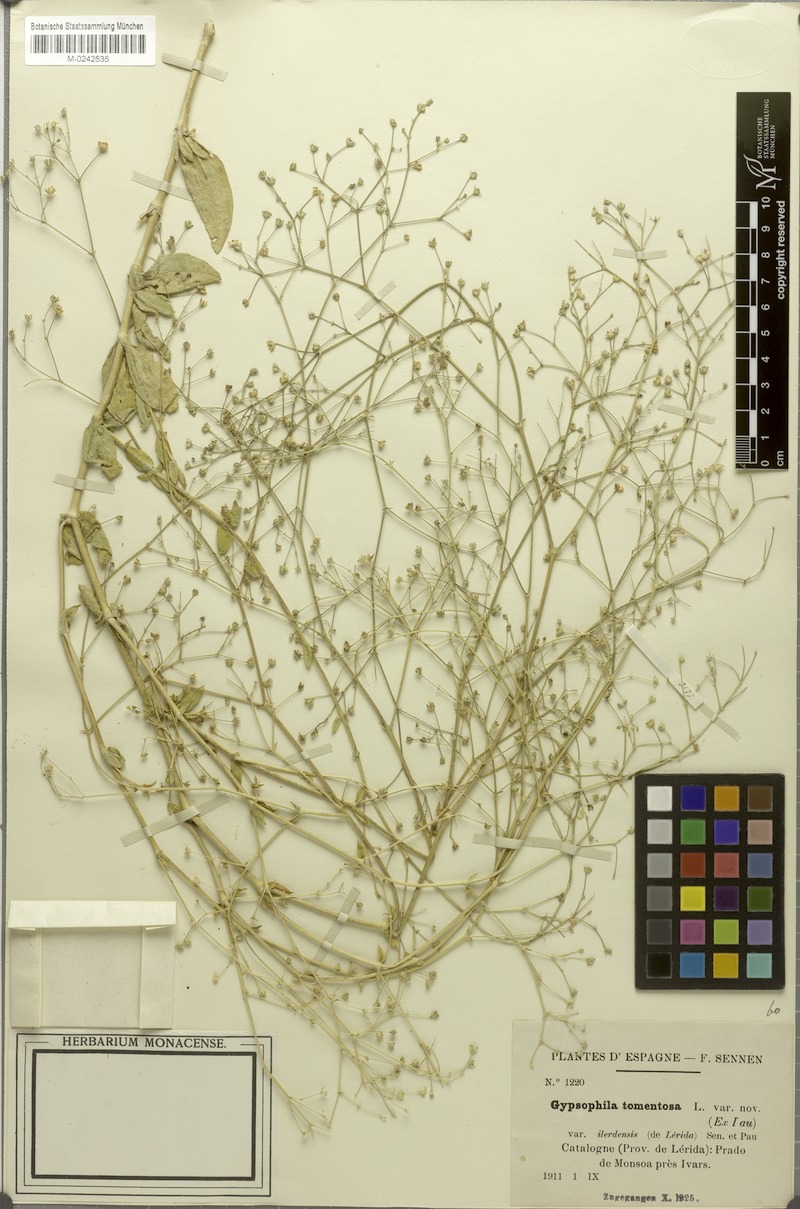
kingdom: Plantae
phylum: Tracheophyta
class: Magnoliopsida
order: Caryophyllales
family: Caryophyllaceae
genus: Gypsophila
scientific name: Gypsophila tomentosa
